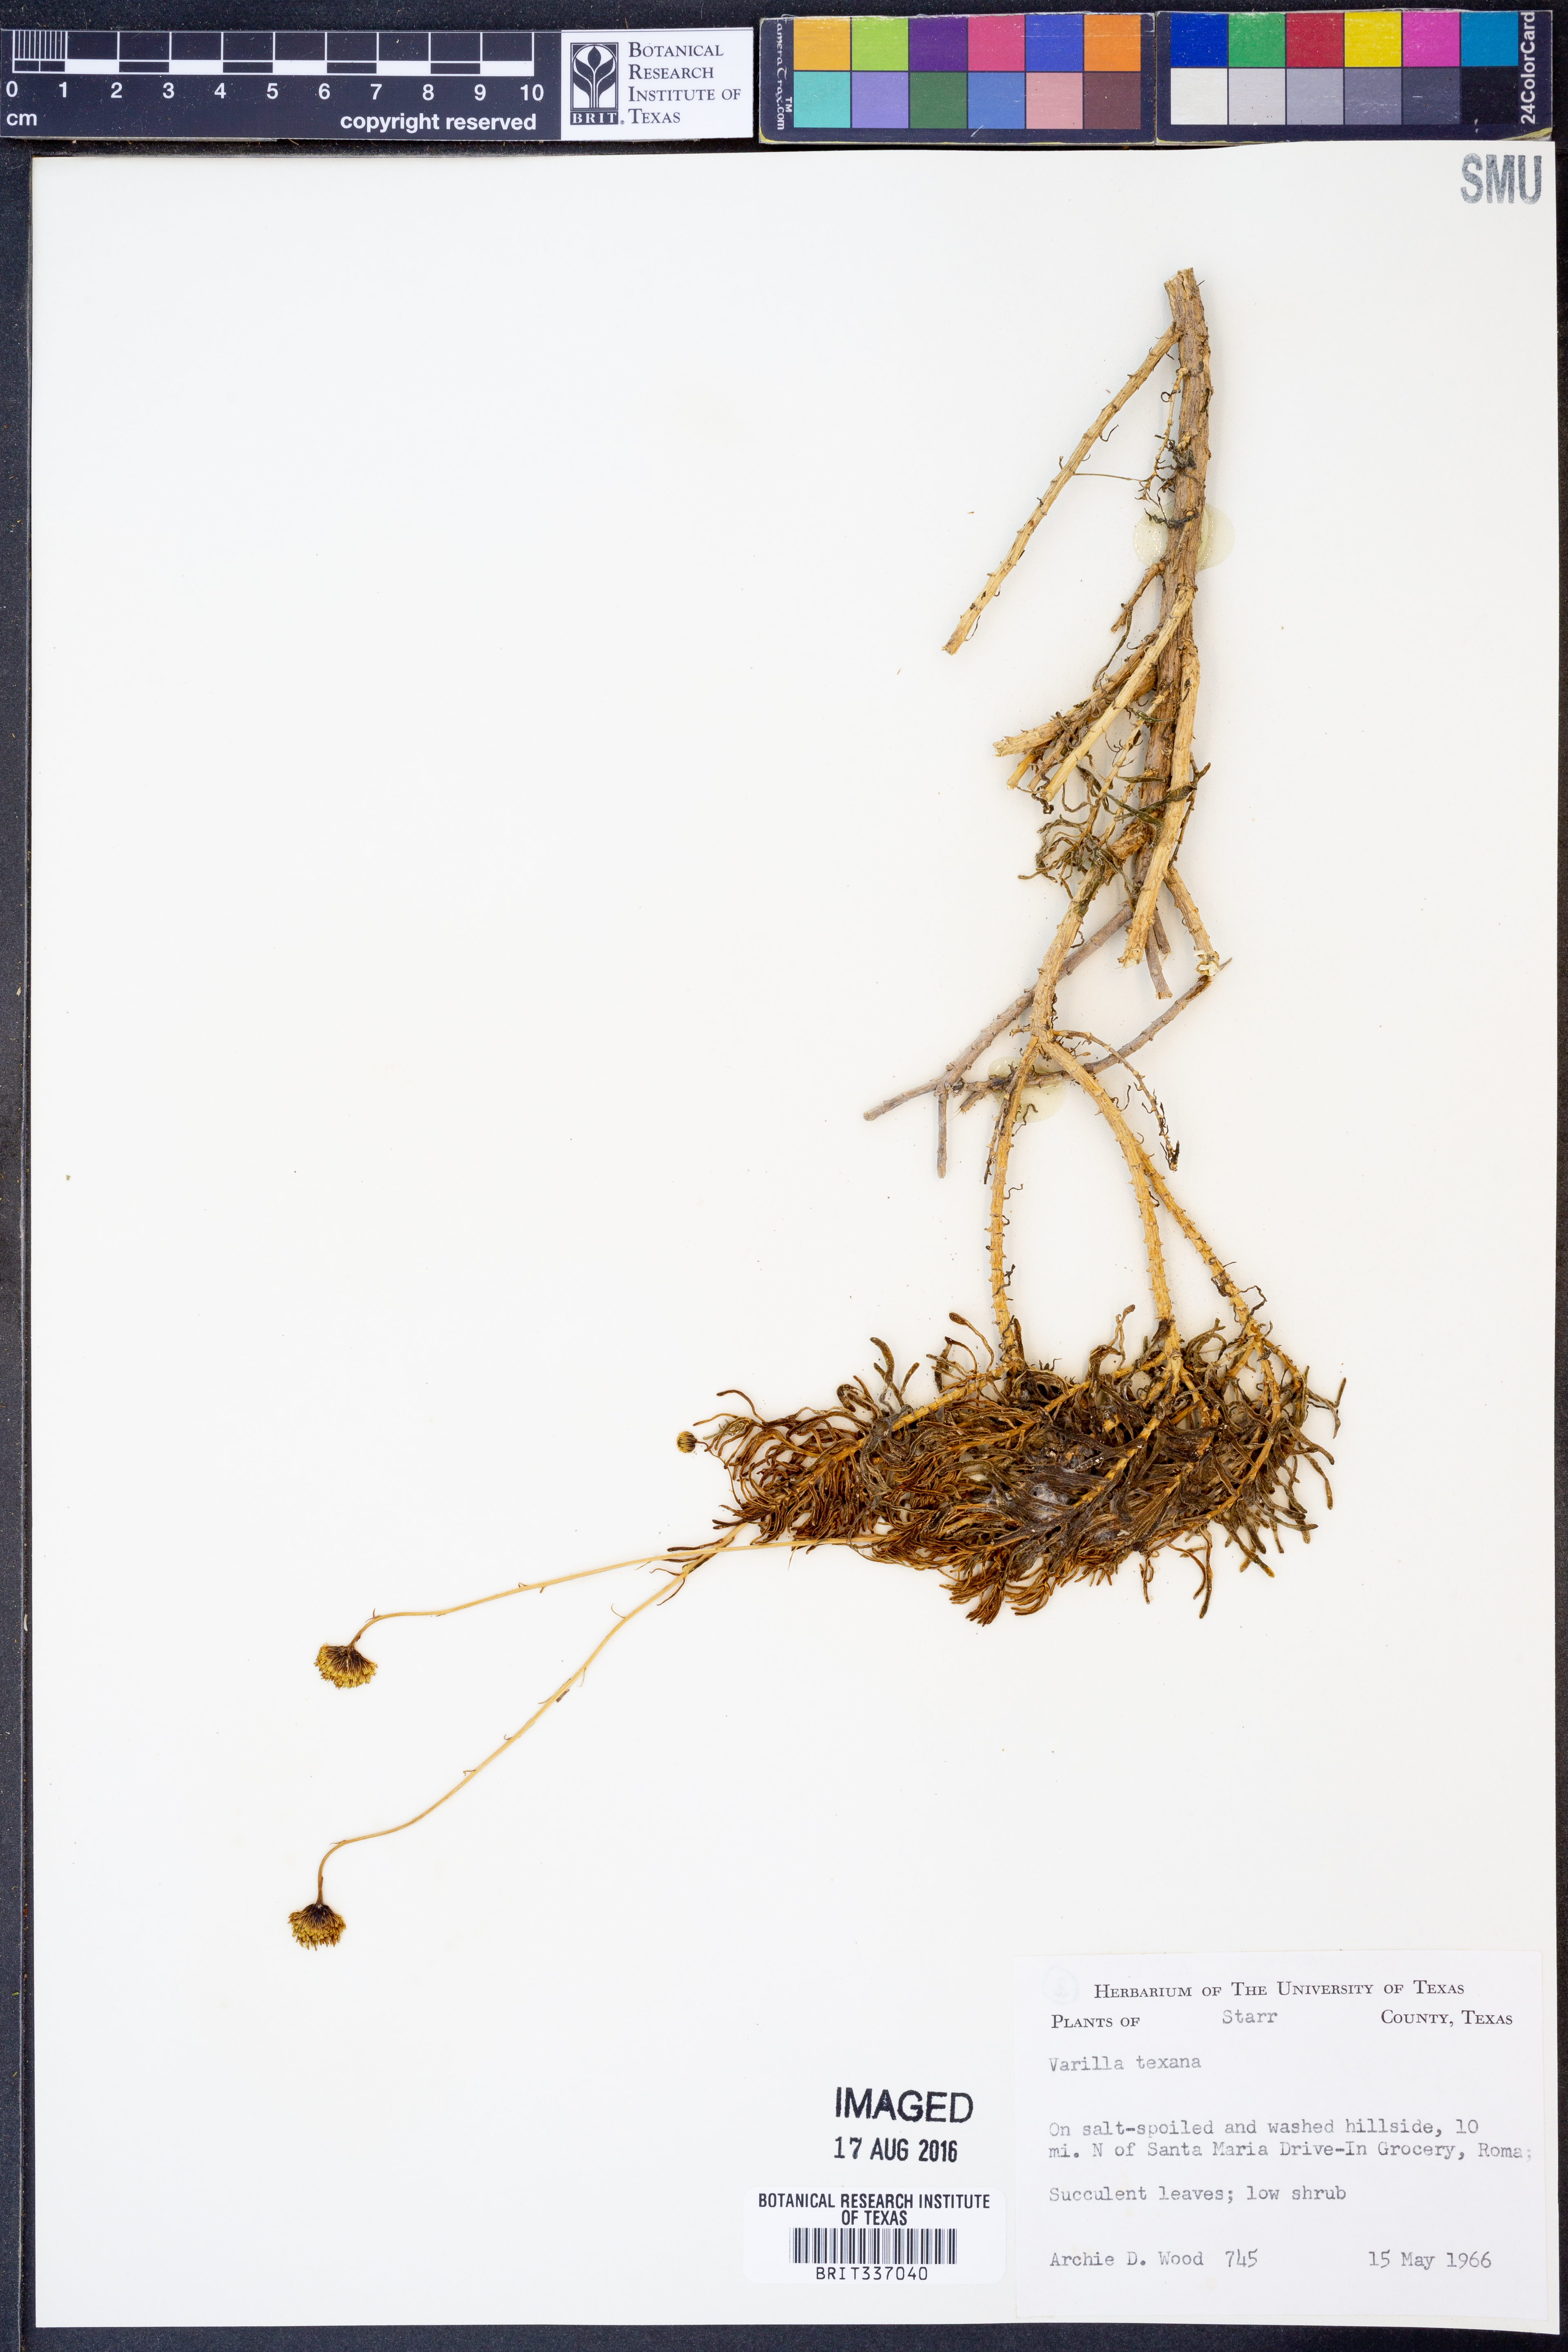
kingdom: Plantae
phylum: Tracheophyta
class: Magnoliopsida
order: Asterales
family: Asteraceae
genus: Varilla
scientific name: Varilla texana
